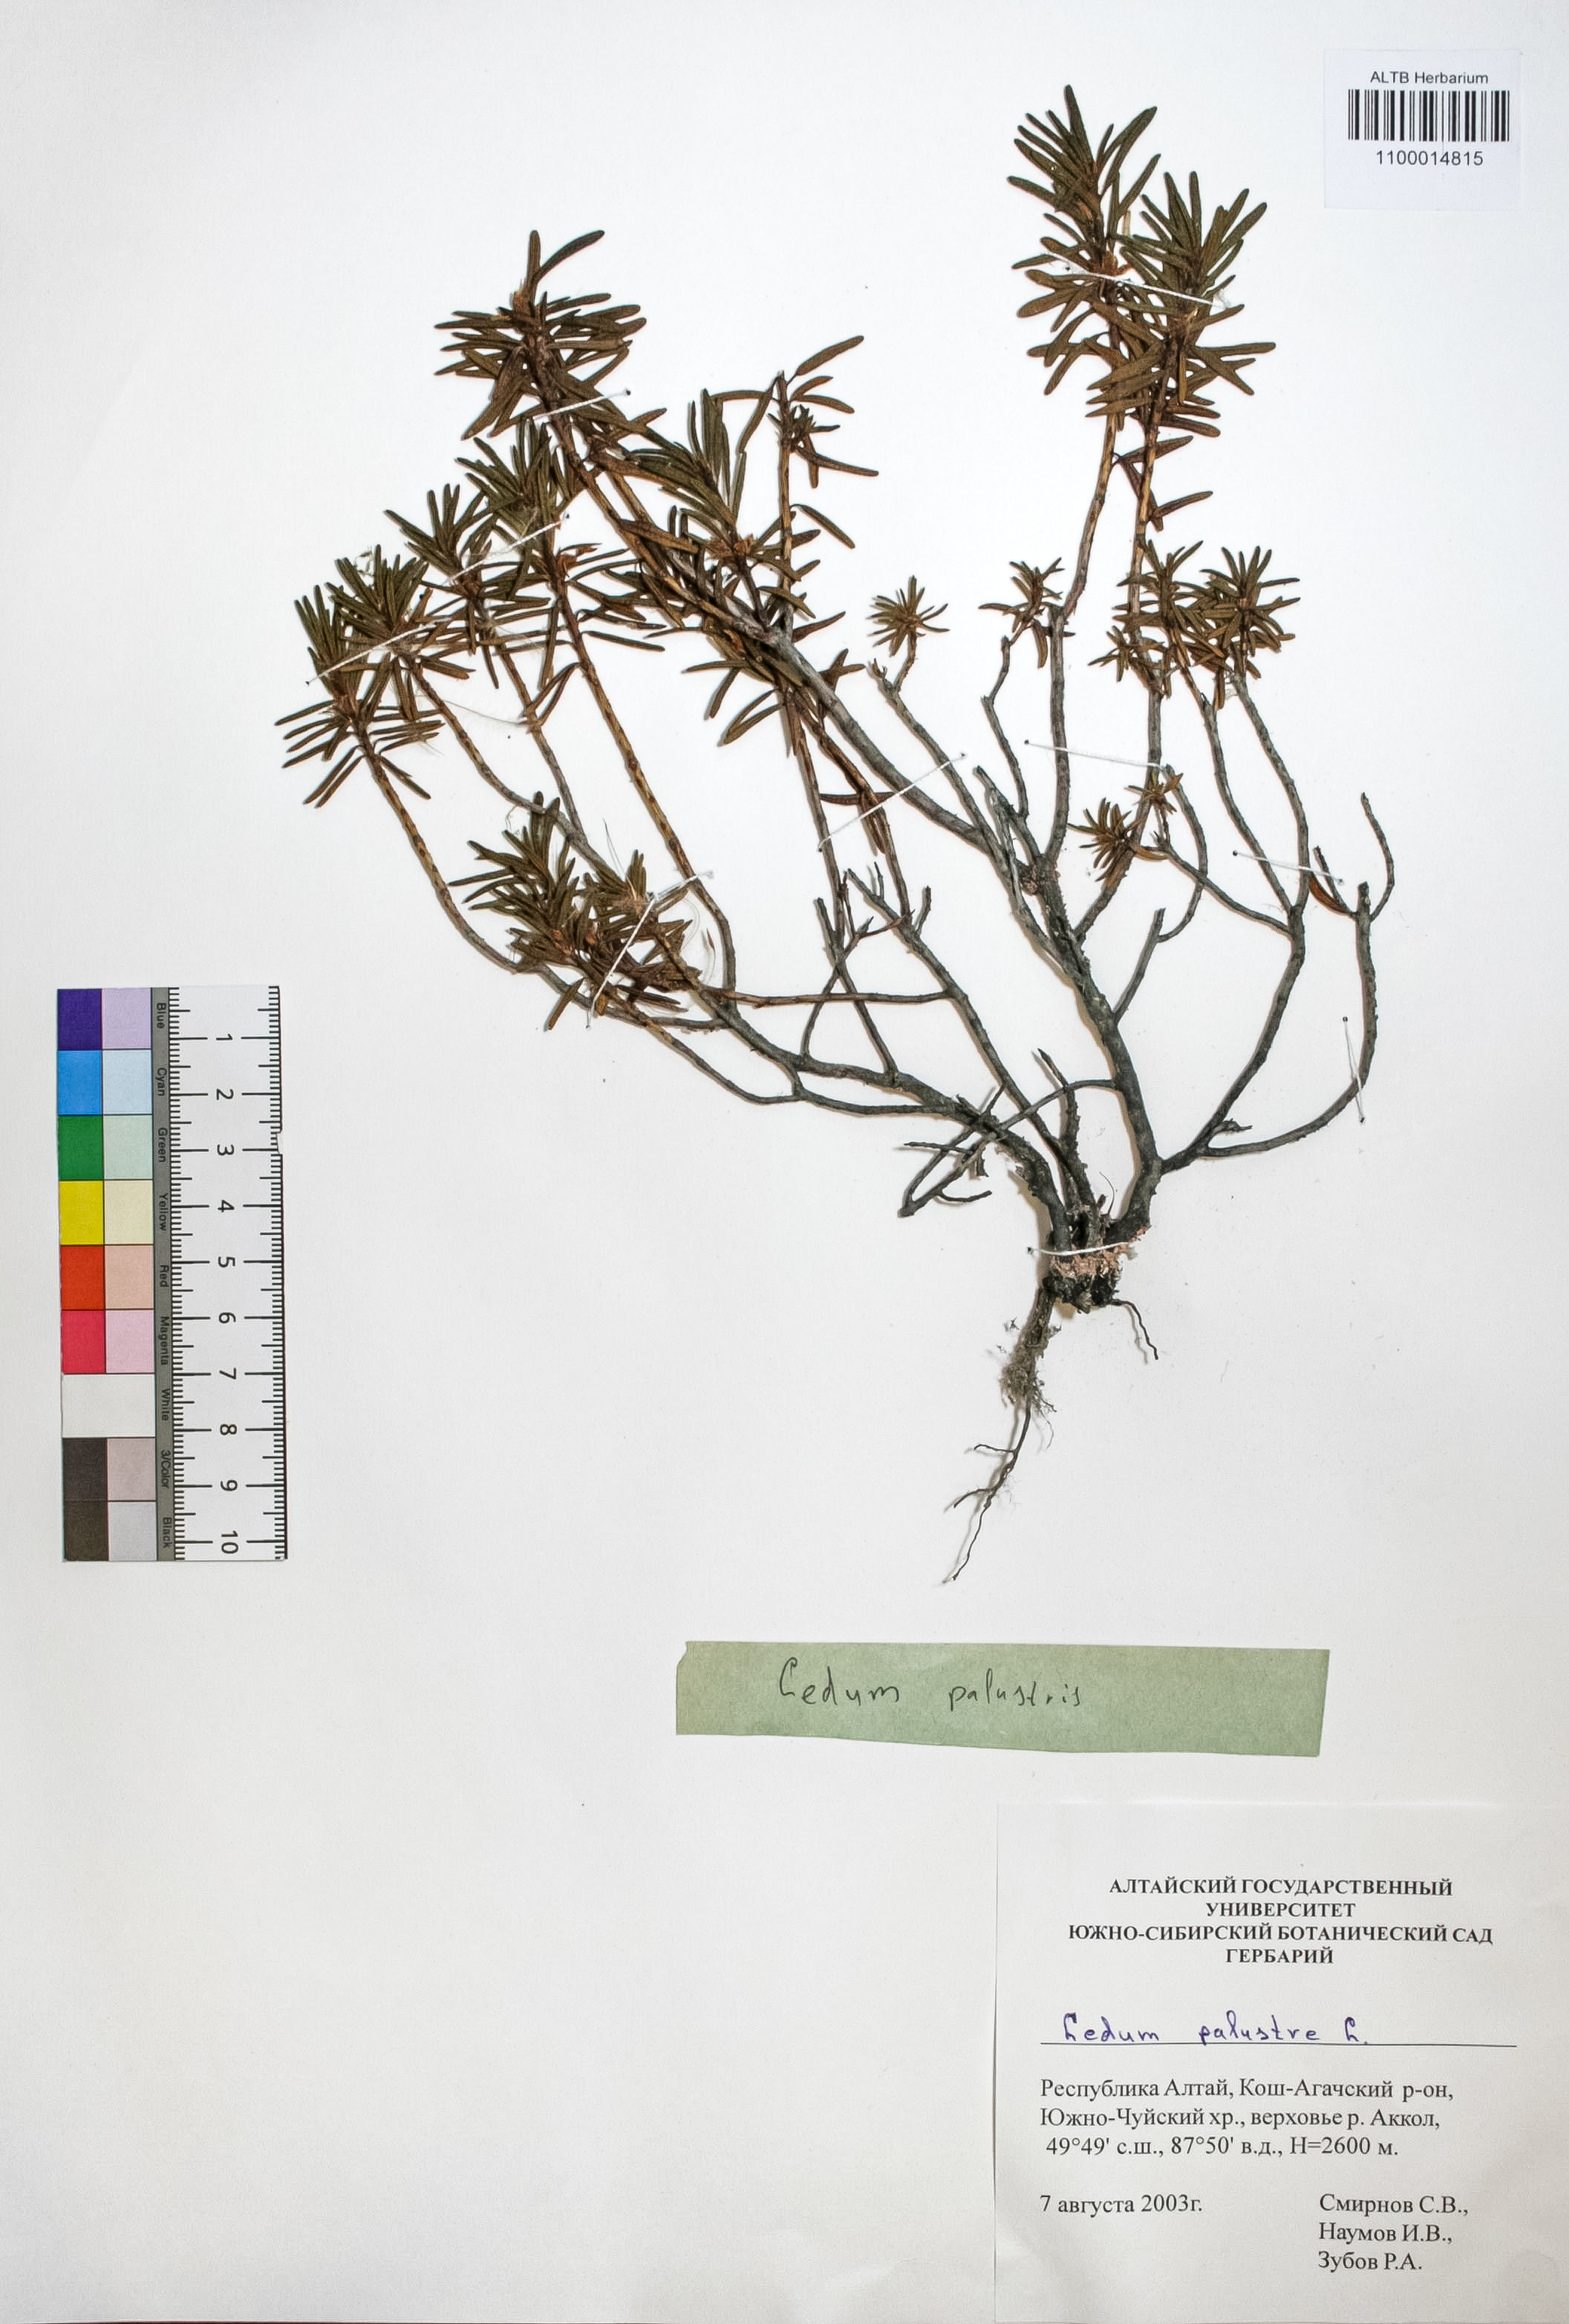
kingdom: Plantae
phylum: Tracheophyta
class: Magnoliopsida
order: Ericales
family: Ericaceae
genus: Rhododendron
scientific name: Rhododendron tomentosum
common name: Marsh labrador tea
